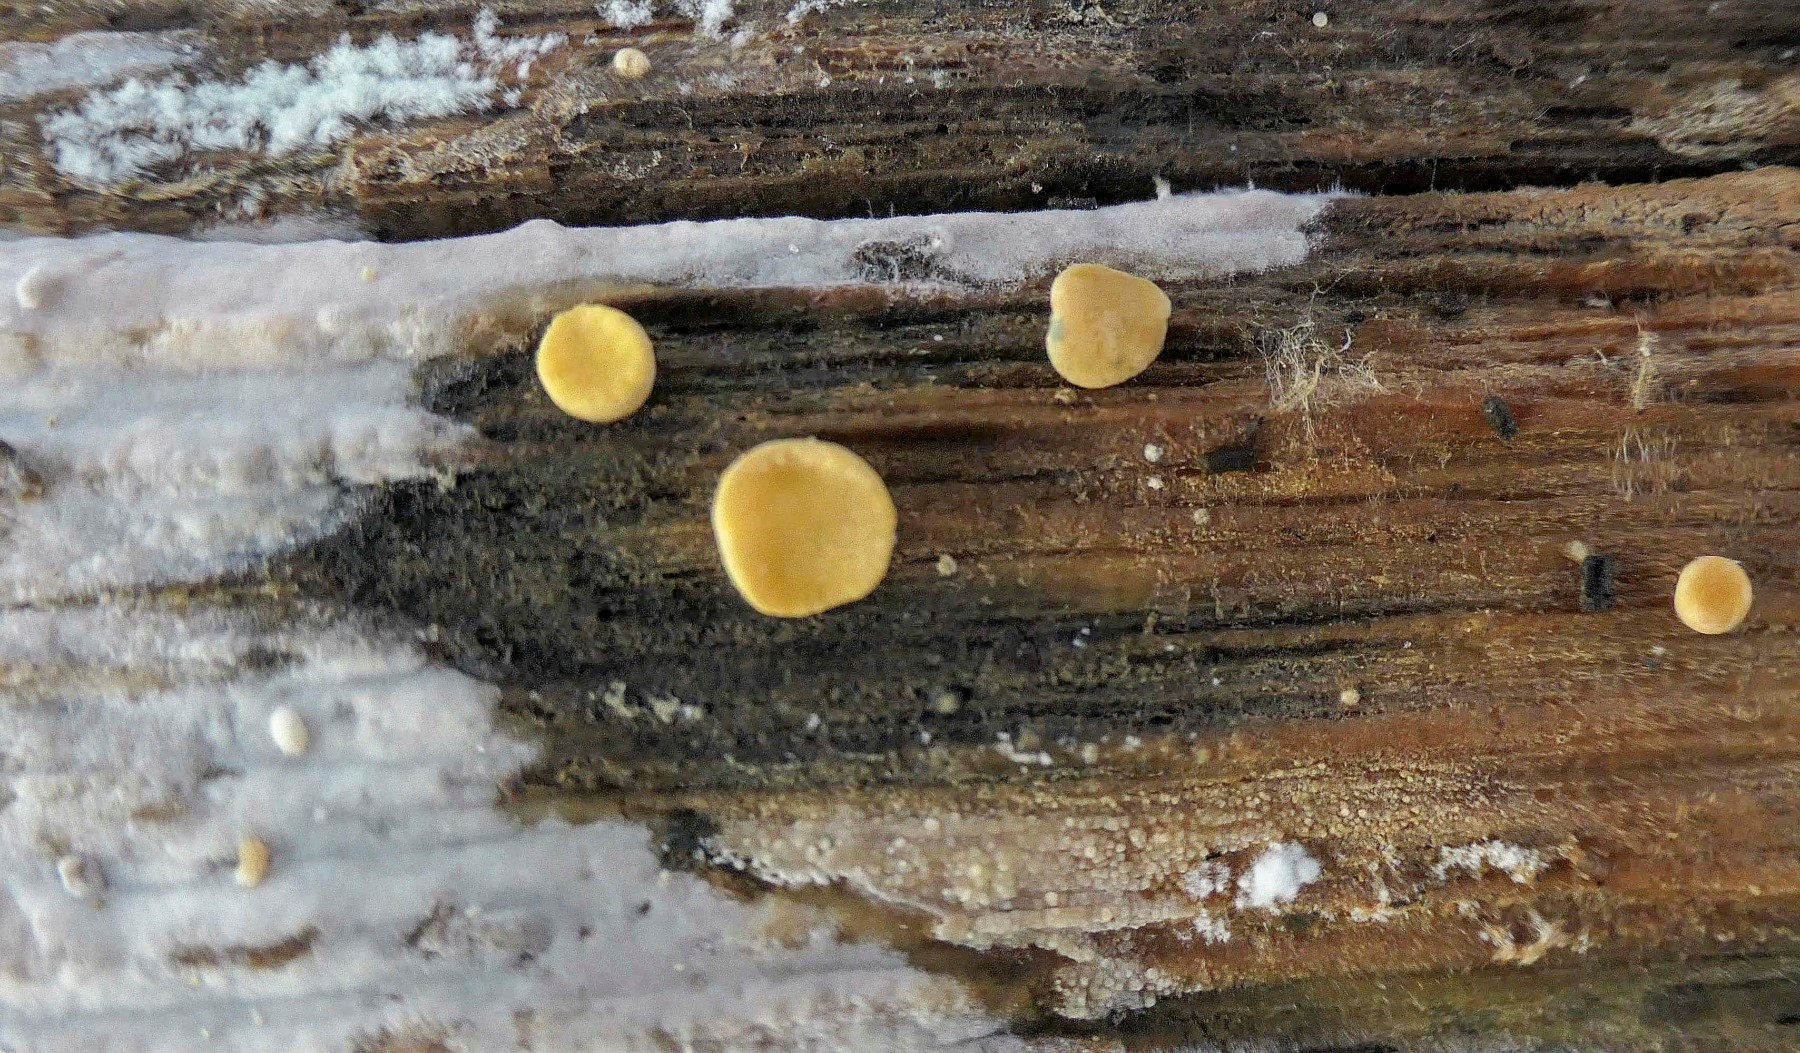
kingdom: Fungi
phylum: Ascomycota
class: Sordariomycetes
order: Hypocreales
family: Hypocreaceae
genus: Trichoderma
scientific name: Trichoderma aureoviride
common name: æggegul kødkerne
